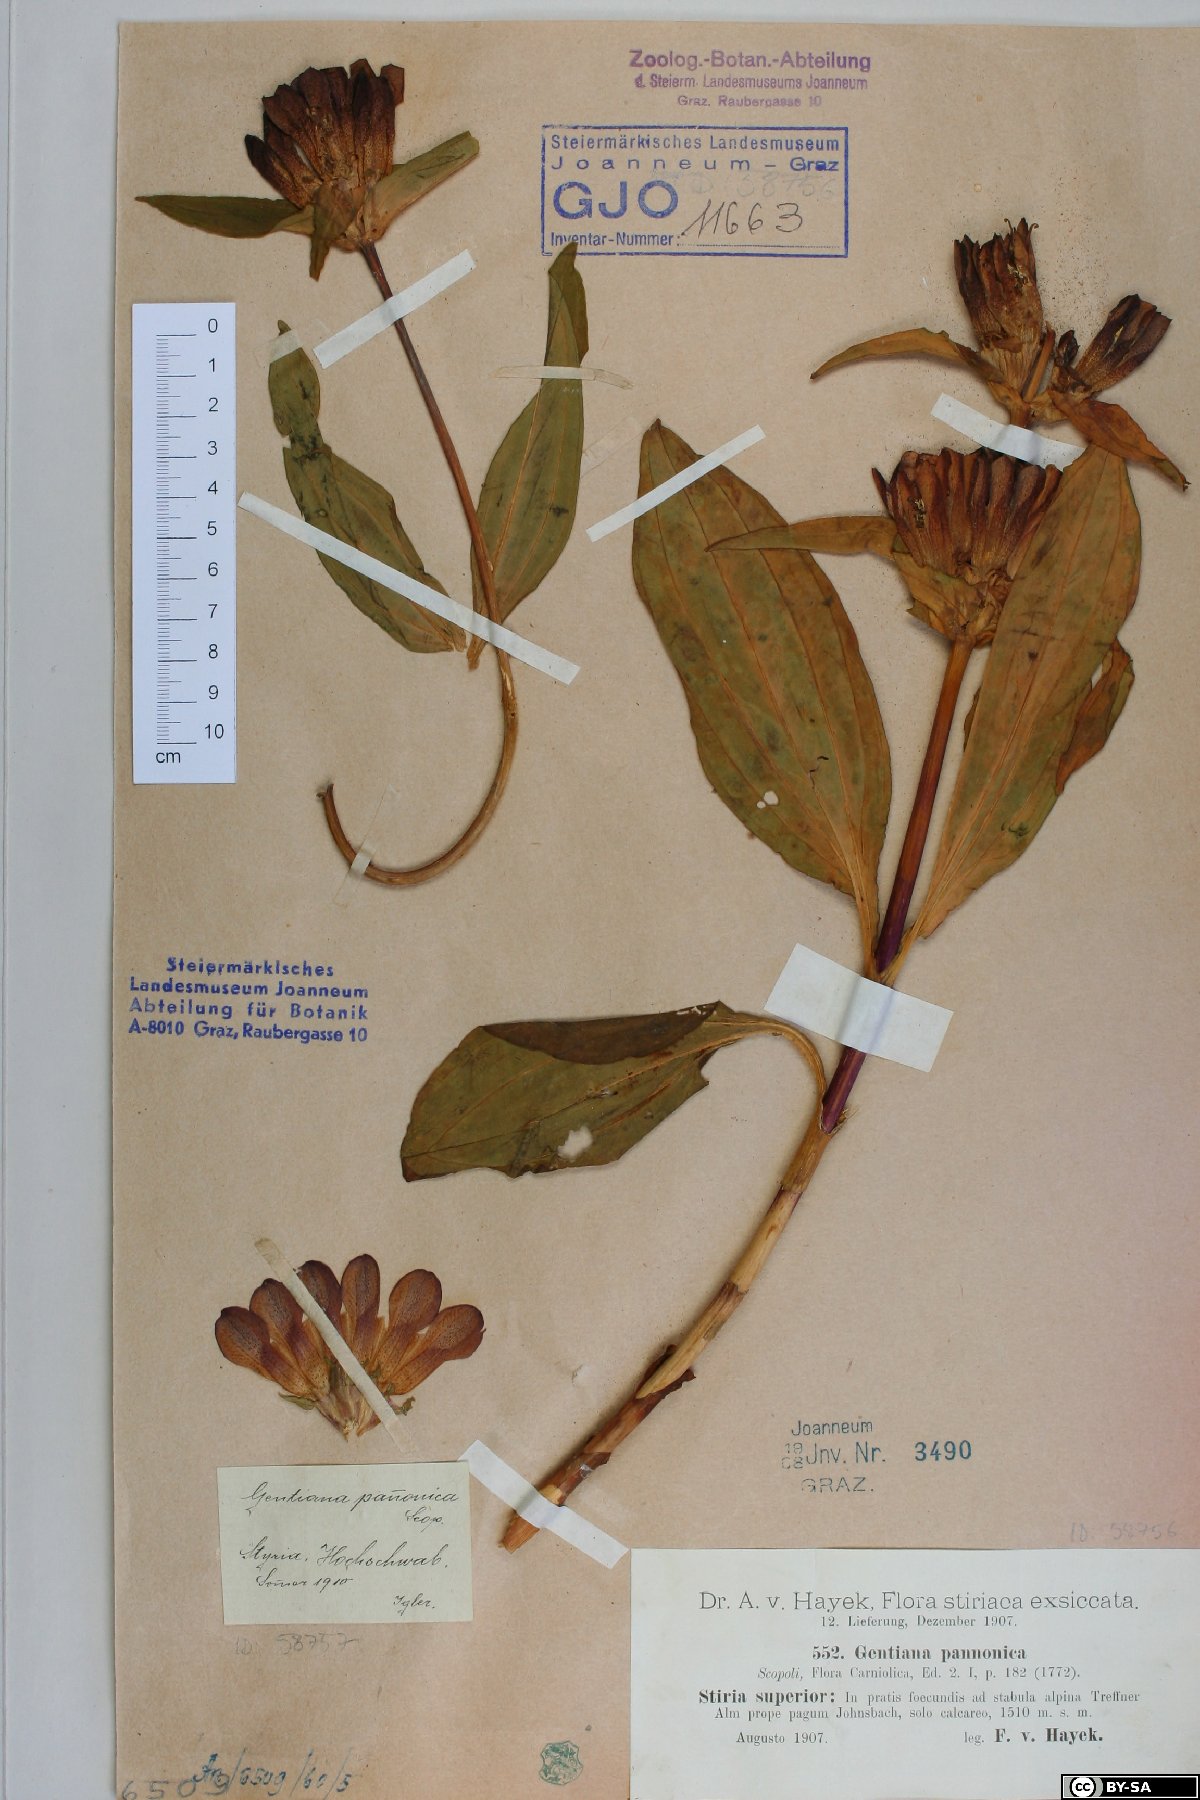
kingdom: Plantae
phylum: Tracheophyta
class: Magnoliopsida
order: Gentianales
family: Gentianaceae
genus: Gentiana
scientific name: Gentiana pannonica
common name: Hungarian gentian
